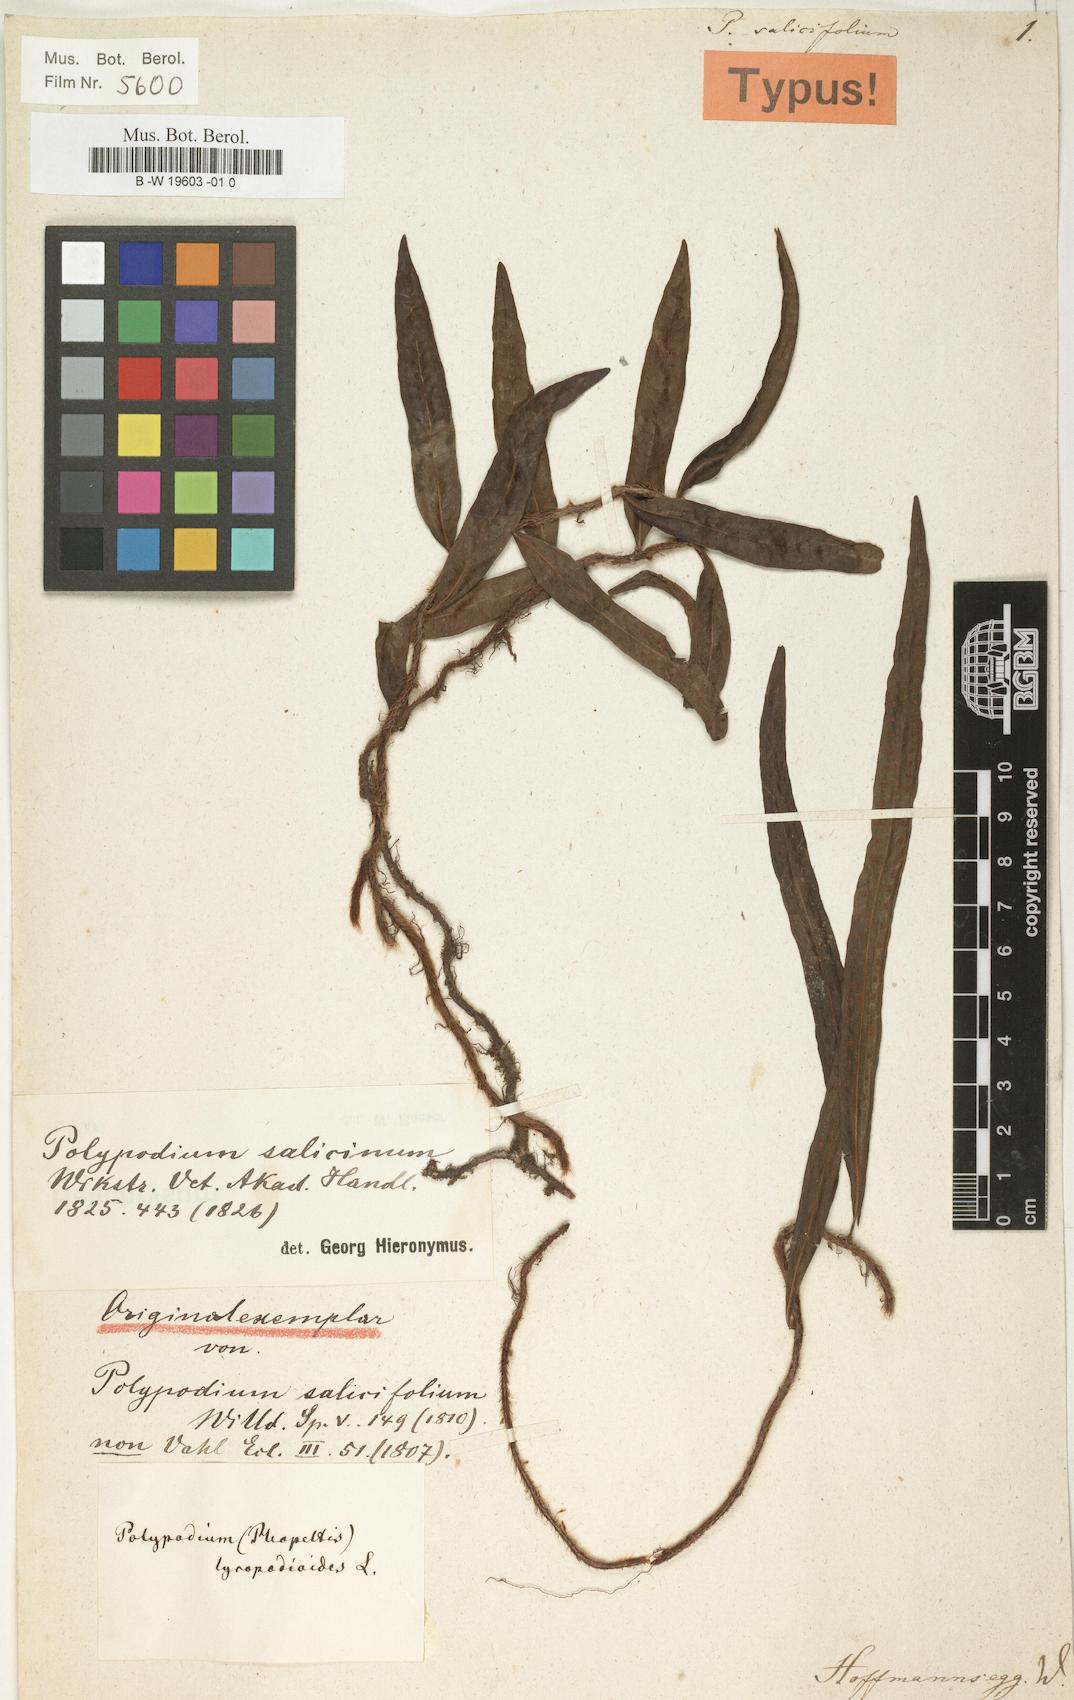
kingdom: Plantae
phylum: Tracheophyta
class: Polypodiopsida
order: Polypodiales
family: Polypodiaceae
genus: Microgramma
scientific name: Microgramma lycopodioides
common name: Bastard catclaw
